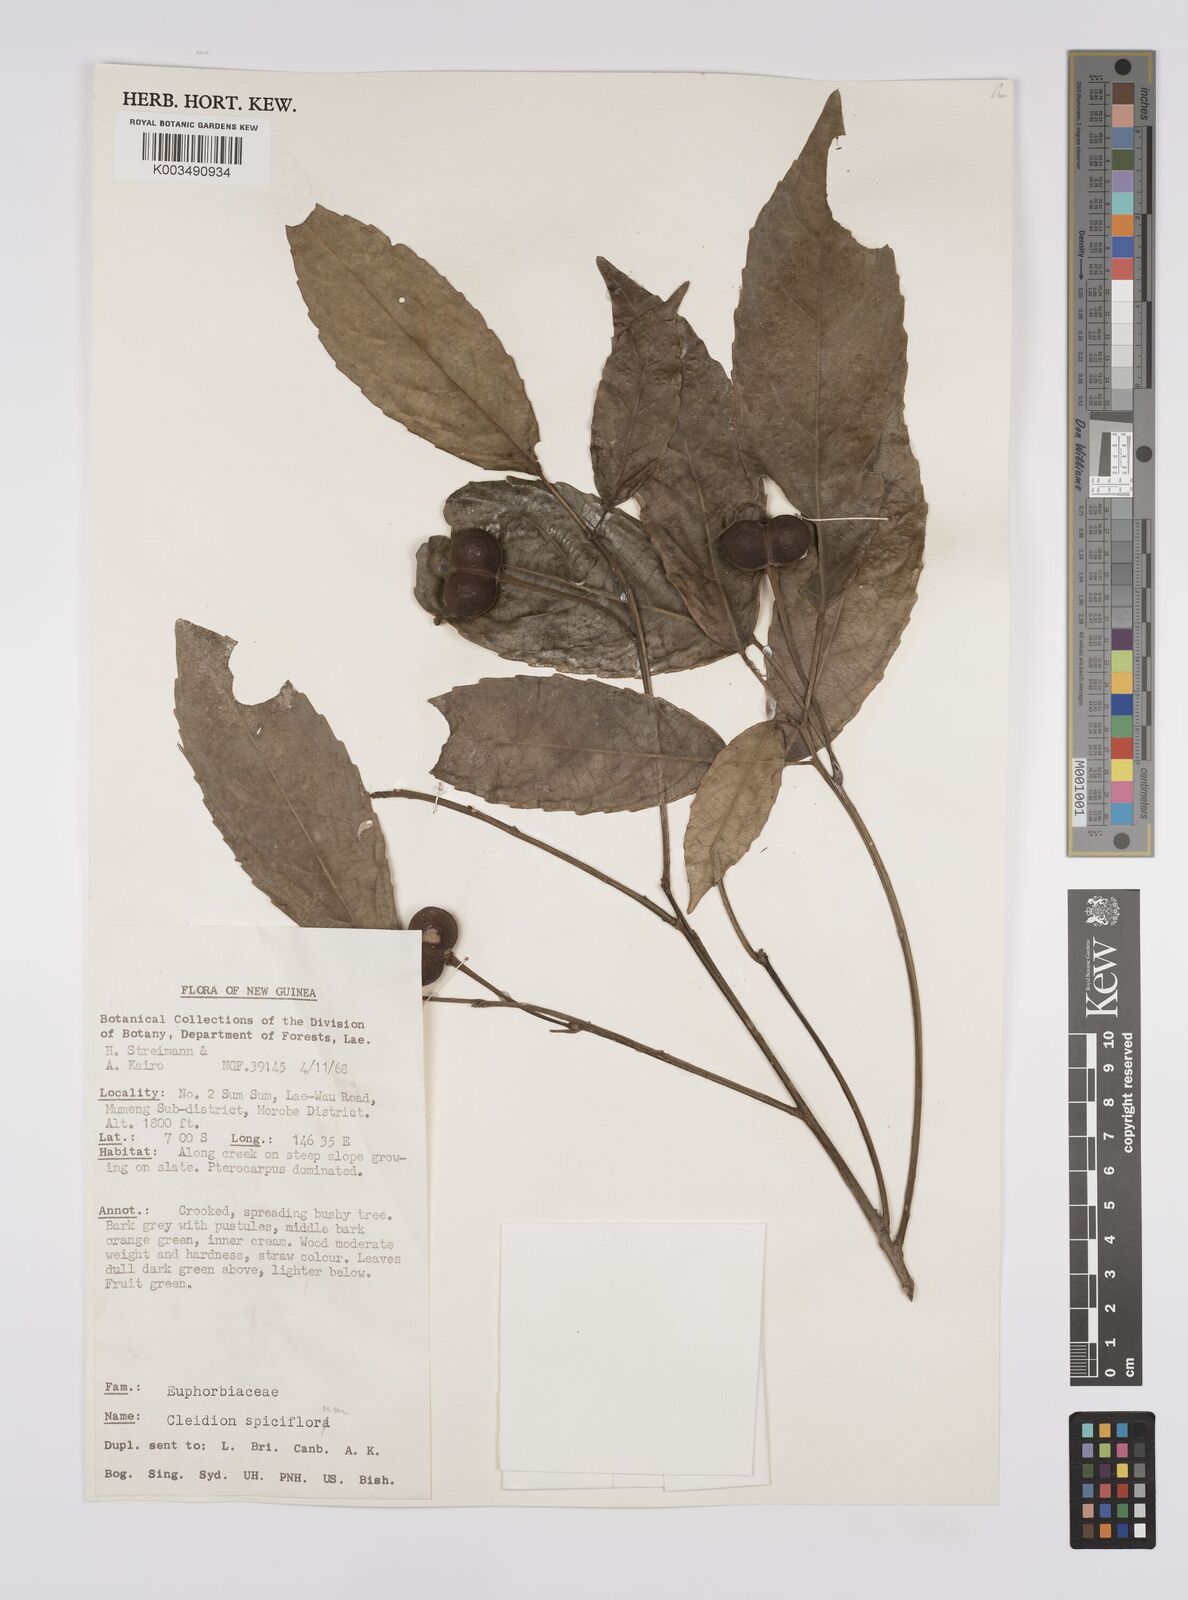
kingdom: Plantae
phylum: Tracheophyta
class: Magnoliopsida
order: Malpighiales
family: Euphorbiaceae
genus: Cleidion
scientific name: Cleidion javanicum
